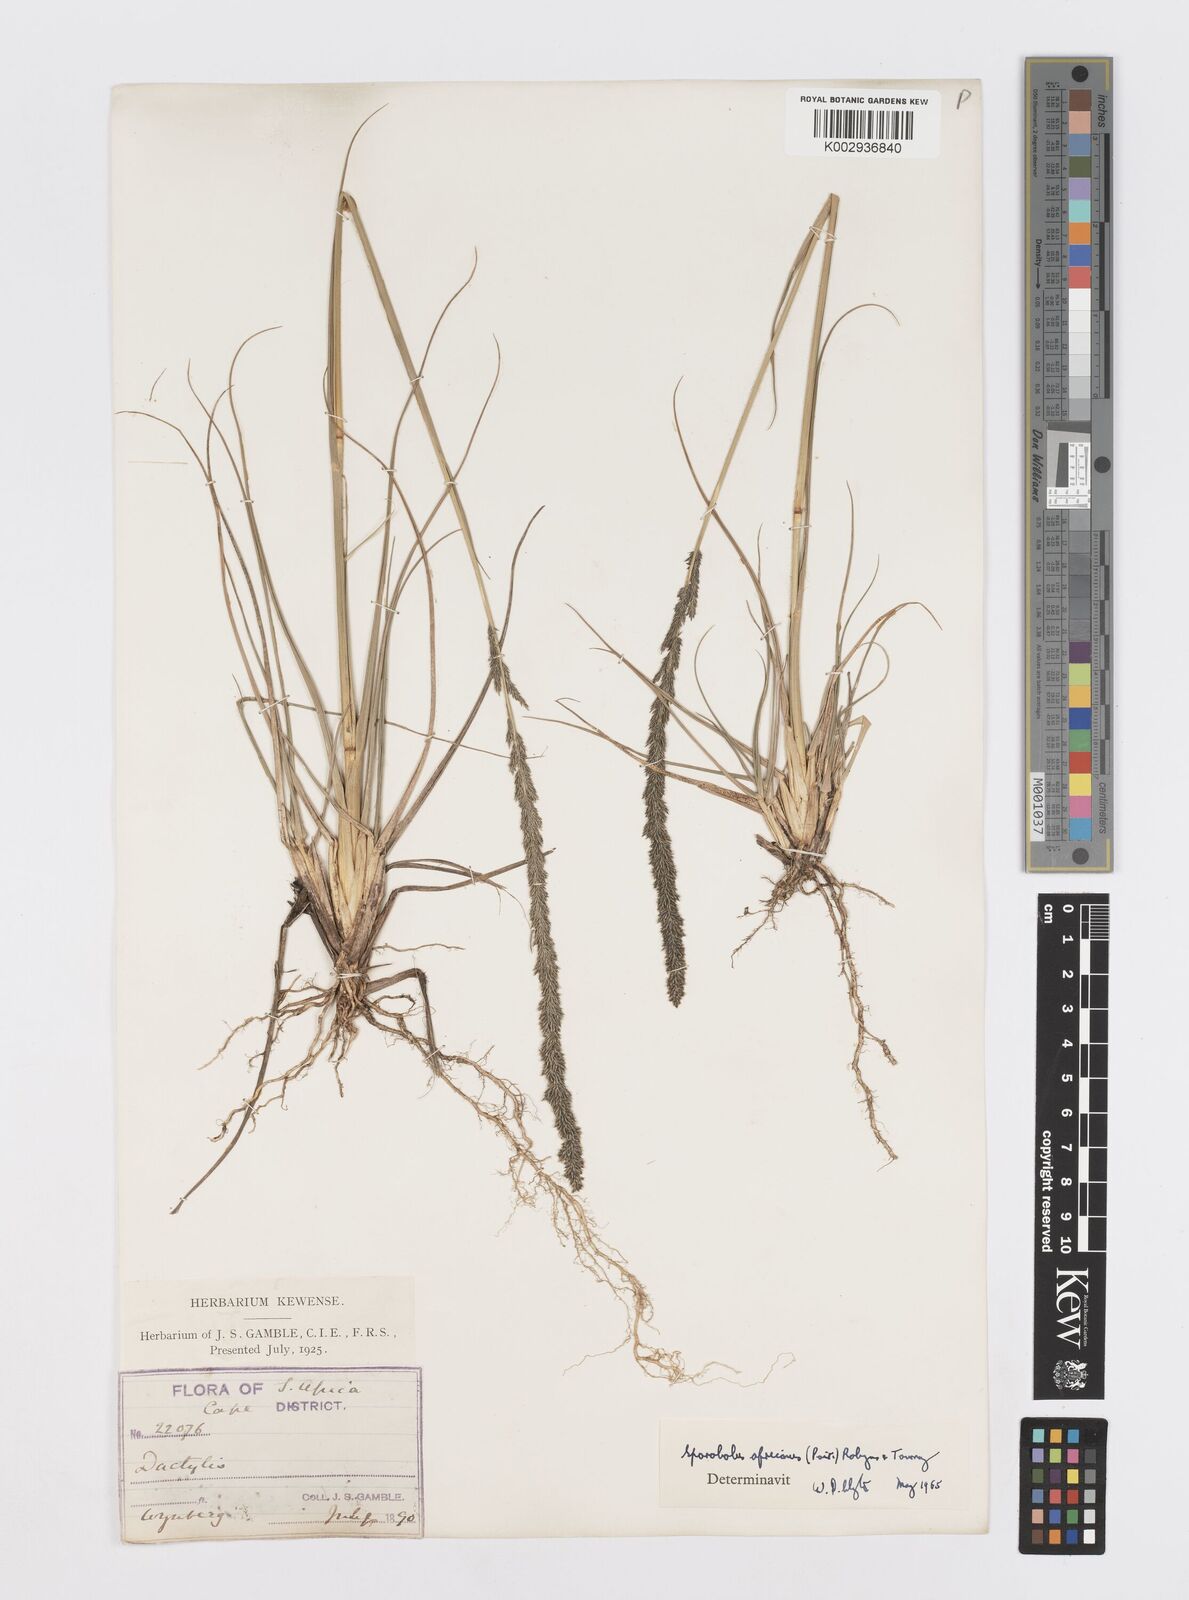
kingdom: Plantae
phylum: Tracheophyta
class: Liliopsida
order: Poales
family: Poaceae
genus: Sporobolus
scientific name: Sporobolus africanus
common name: African dropseed
